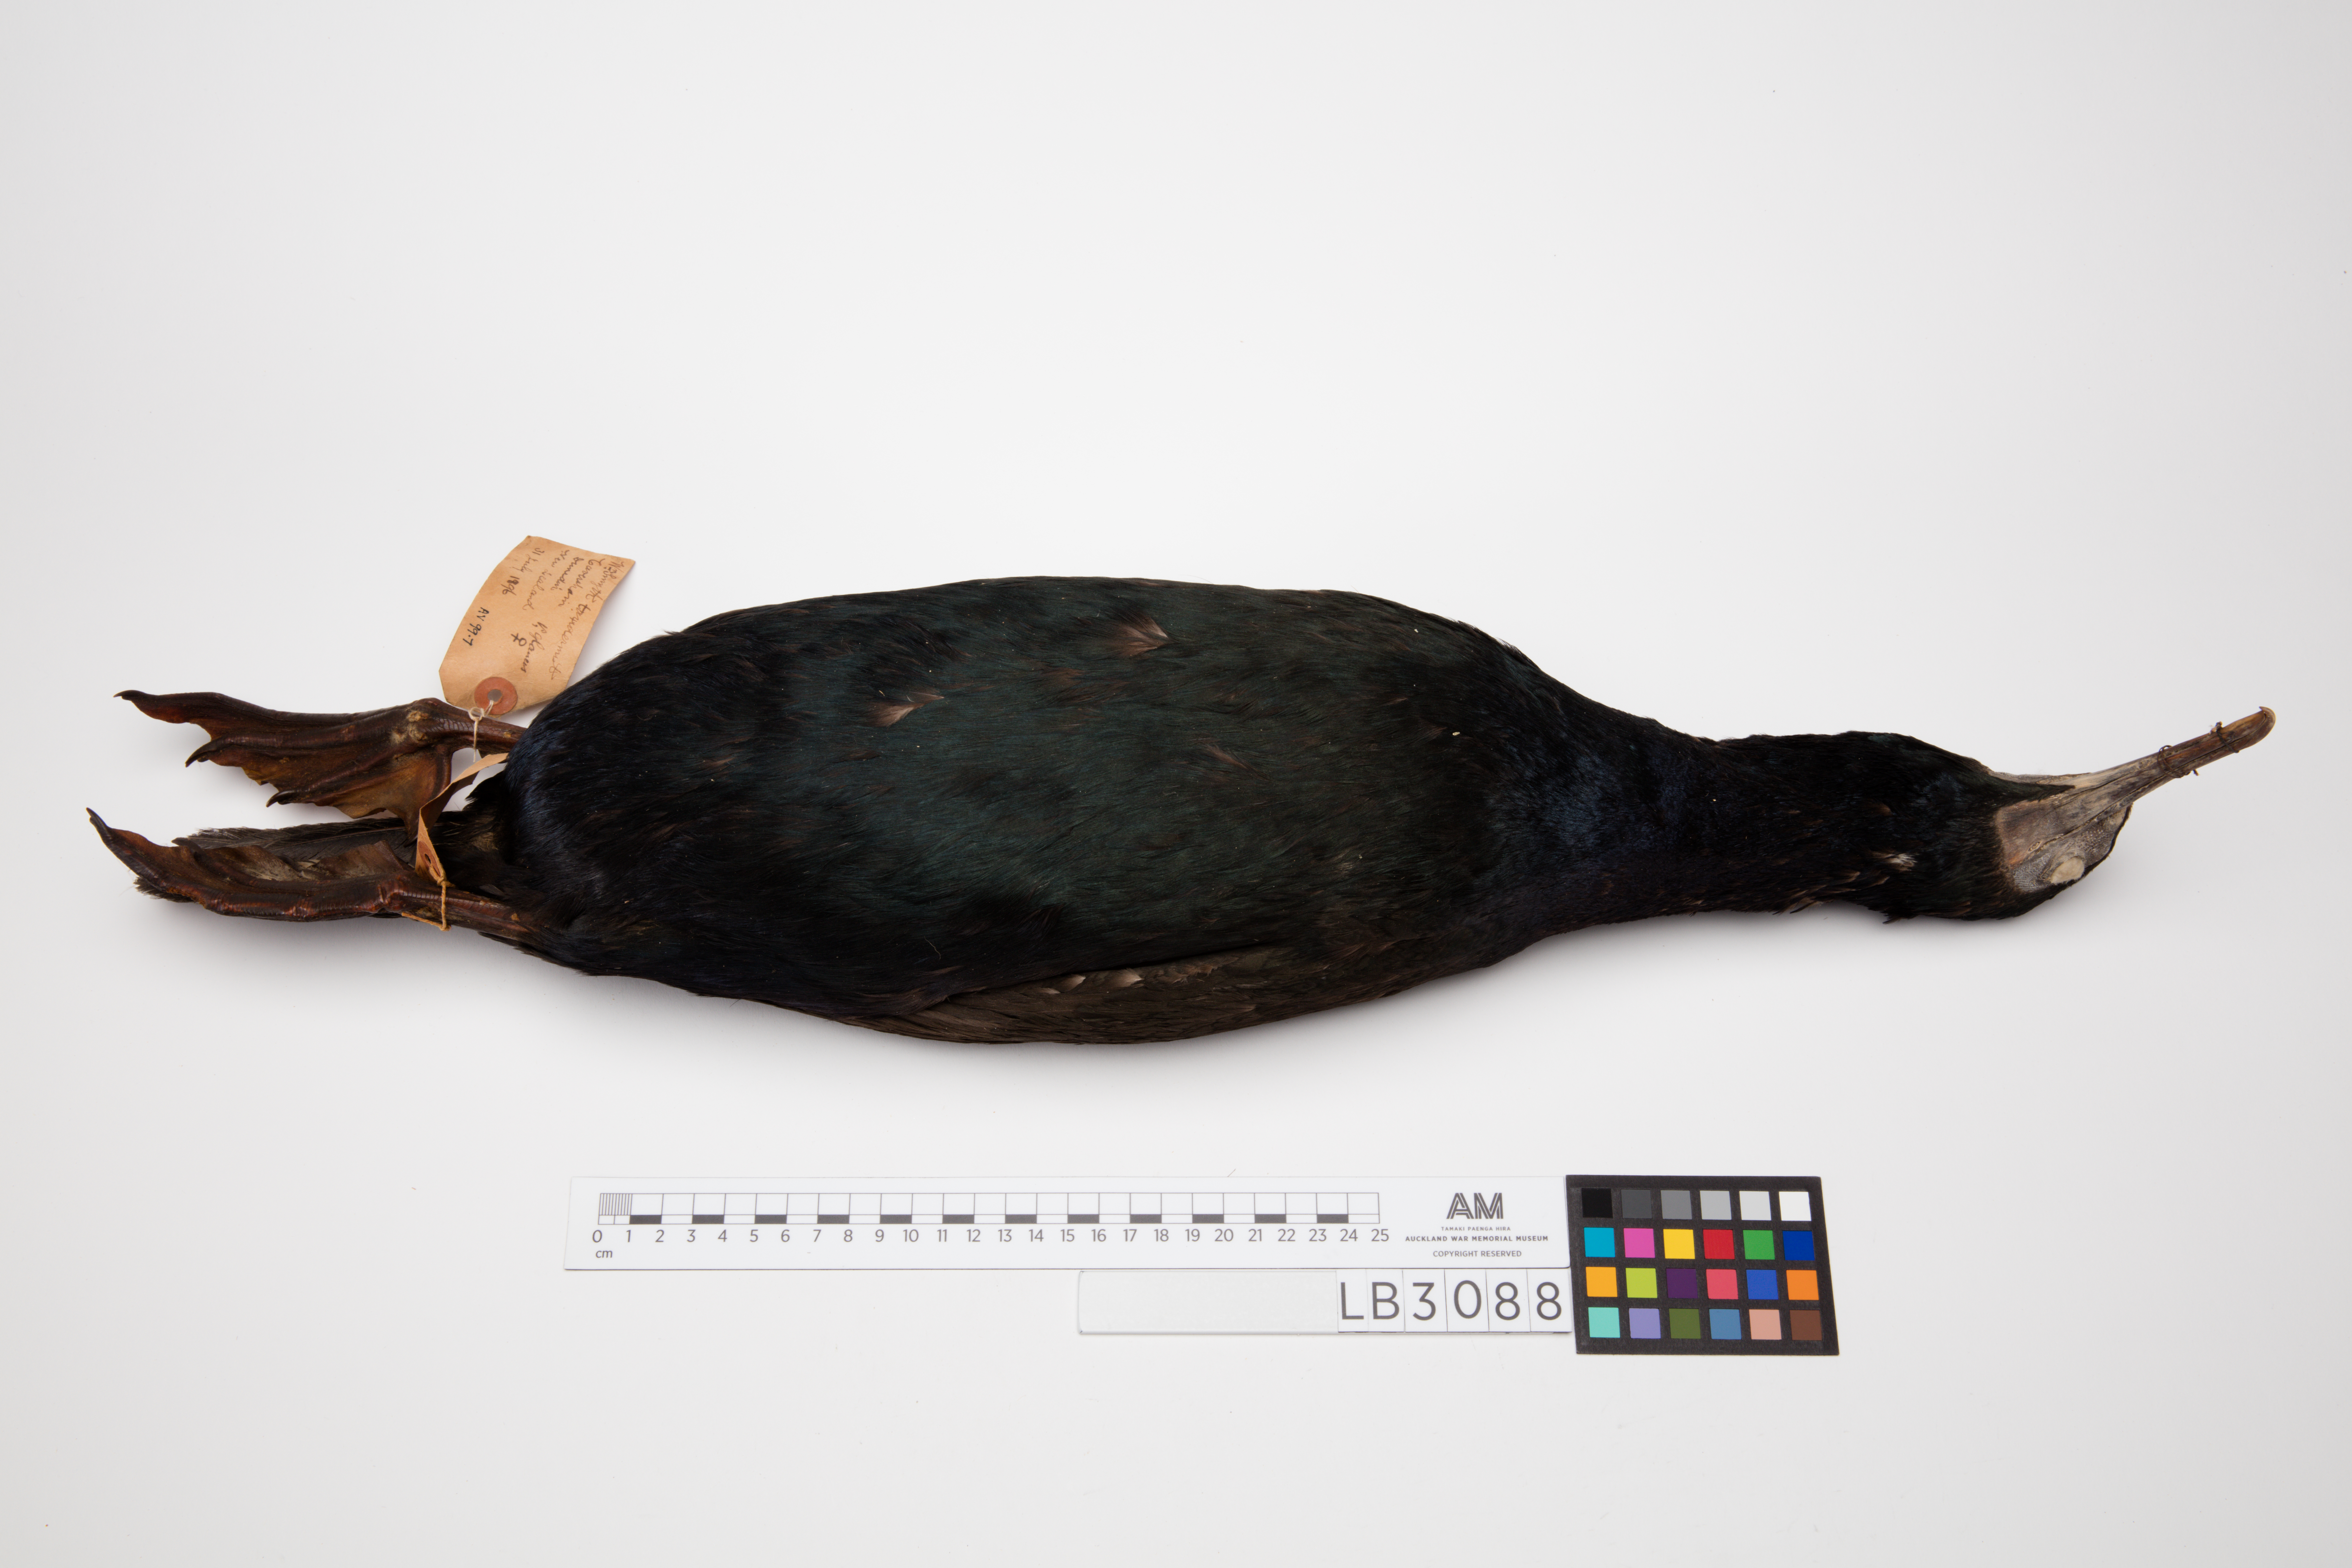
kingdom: Animalia
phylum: Chordata
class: Aves
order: Suliformes
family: Phalacrocoracidae
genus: Leucocarbo
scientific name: Leucocarbo chalconotus
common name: Stewart shag
